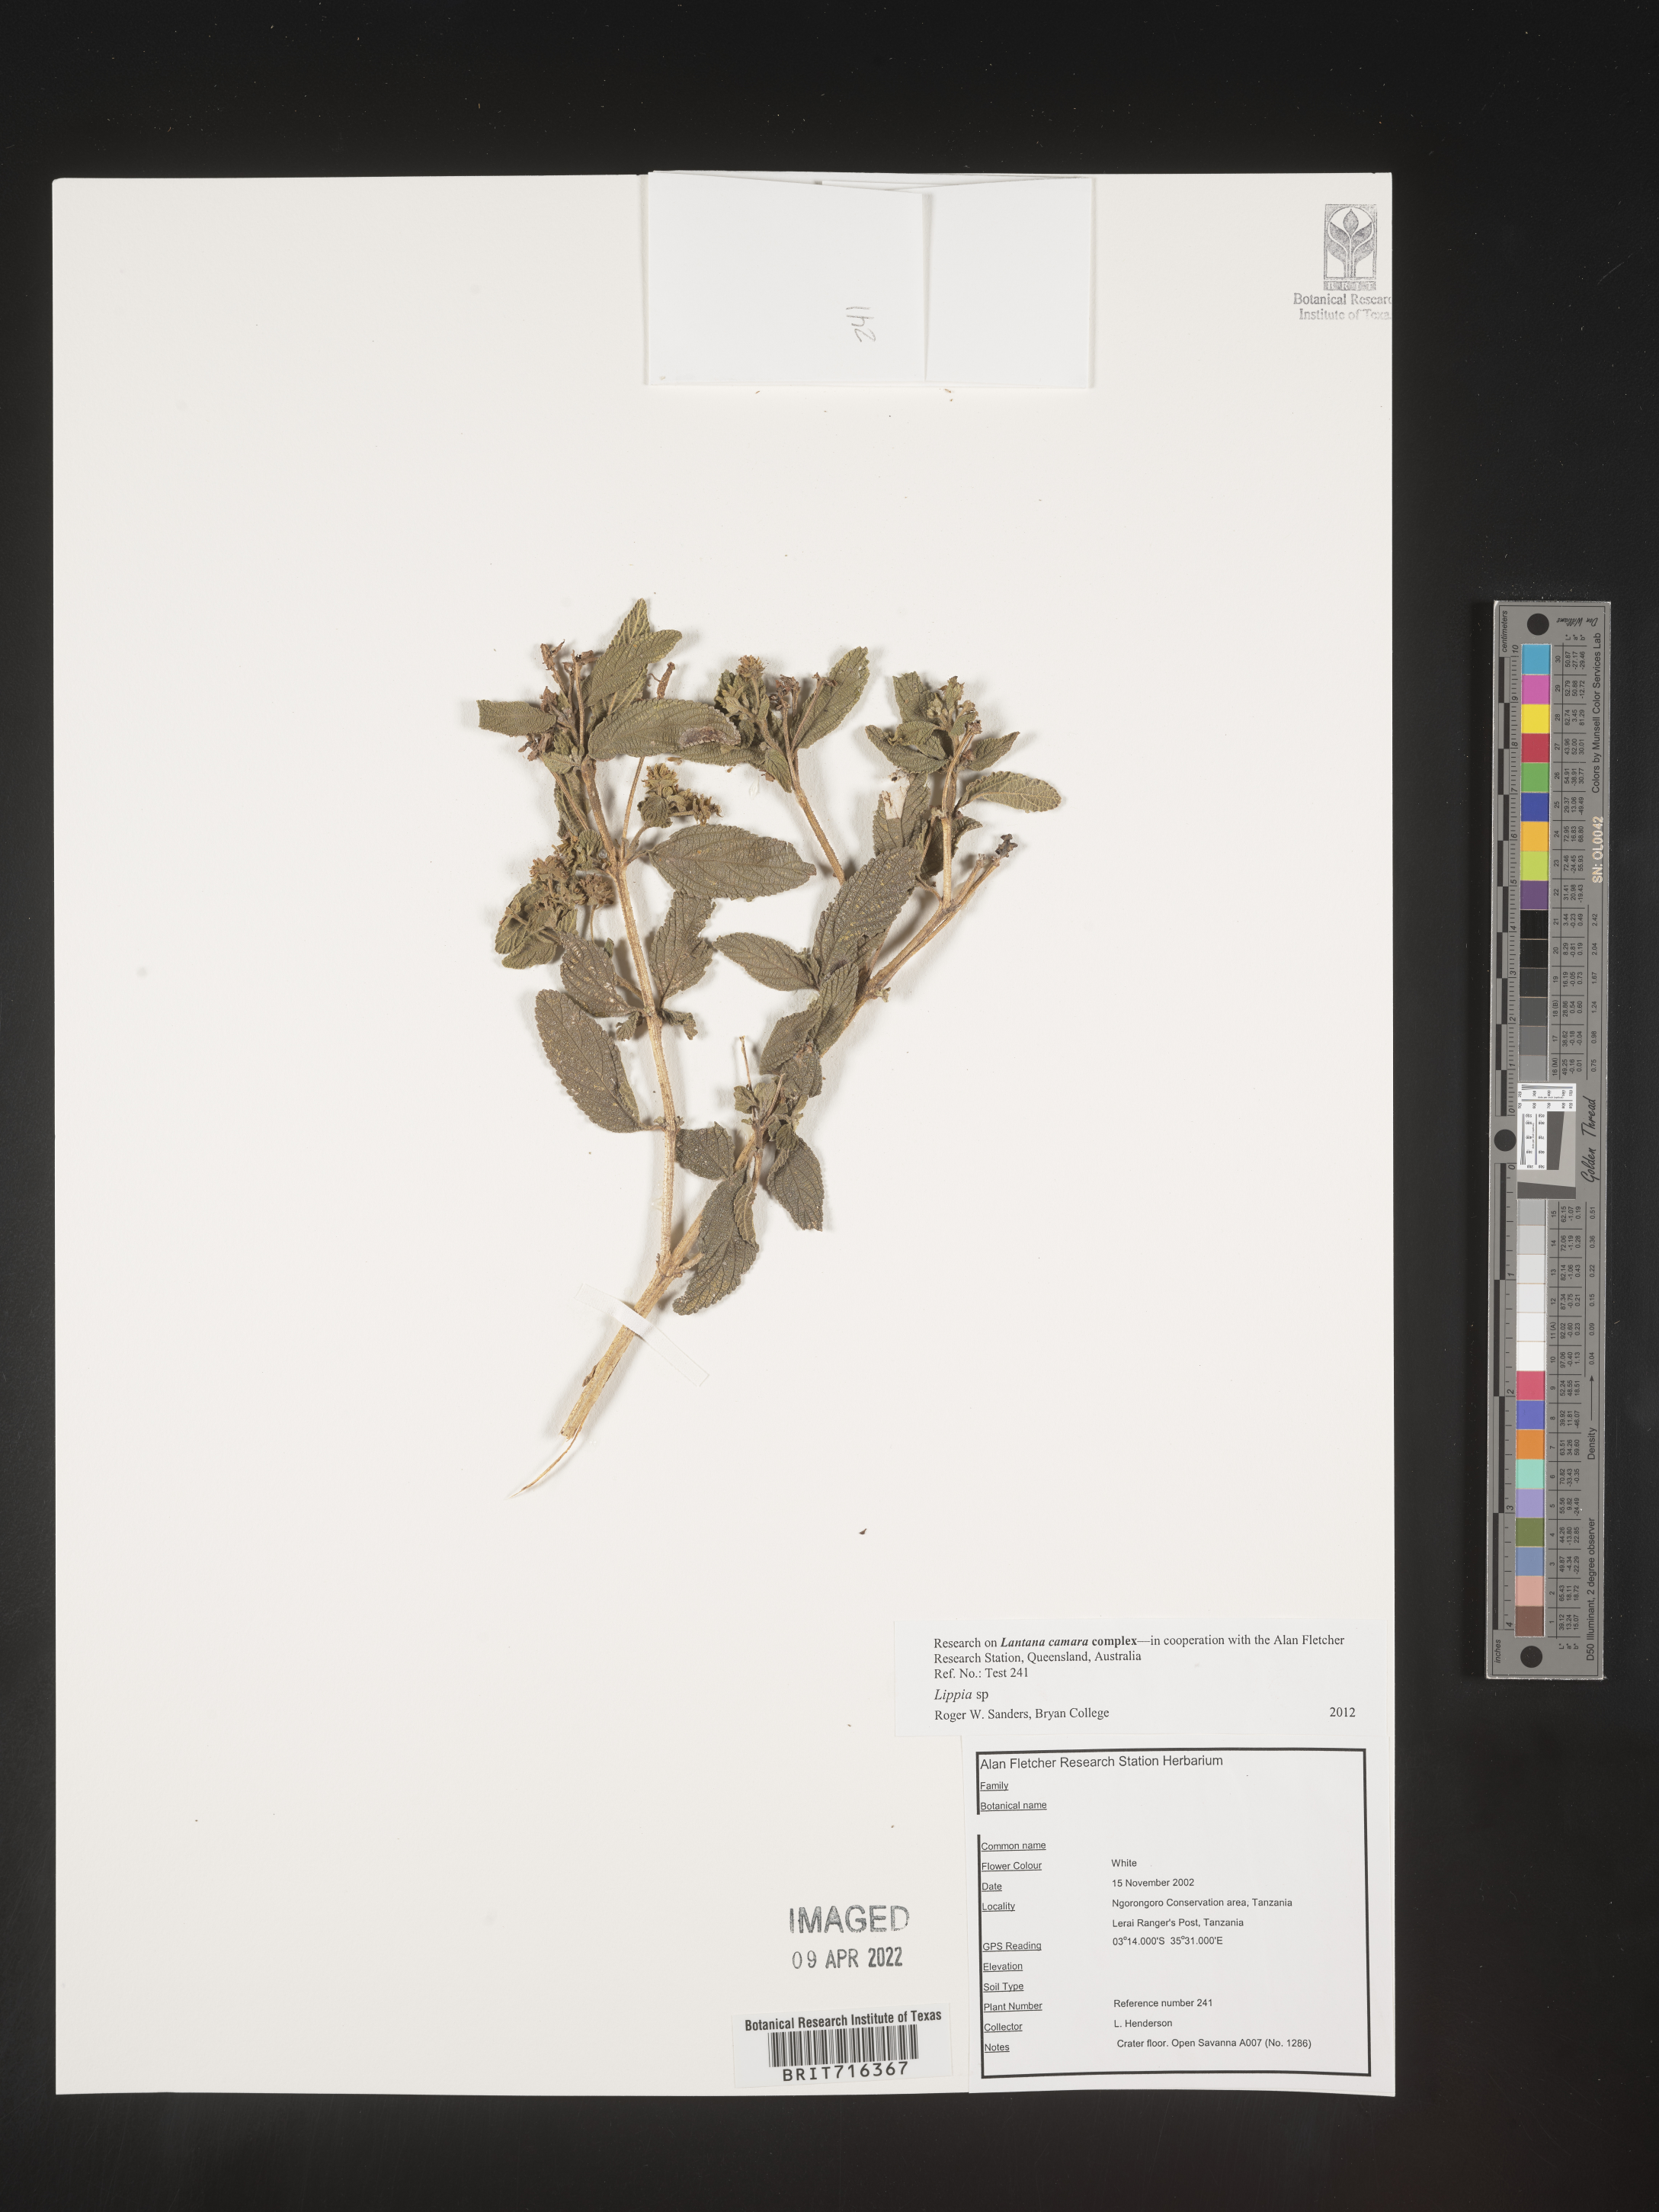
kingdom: Plantae
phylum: Tracheophyta
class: Magnoliopsida
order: Lamiales
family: Verbenaceae
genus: Lippia
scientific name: Lippia
